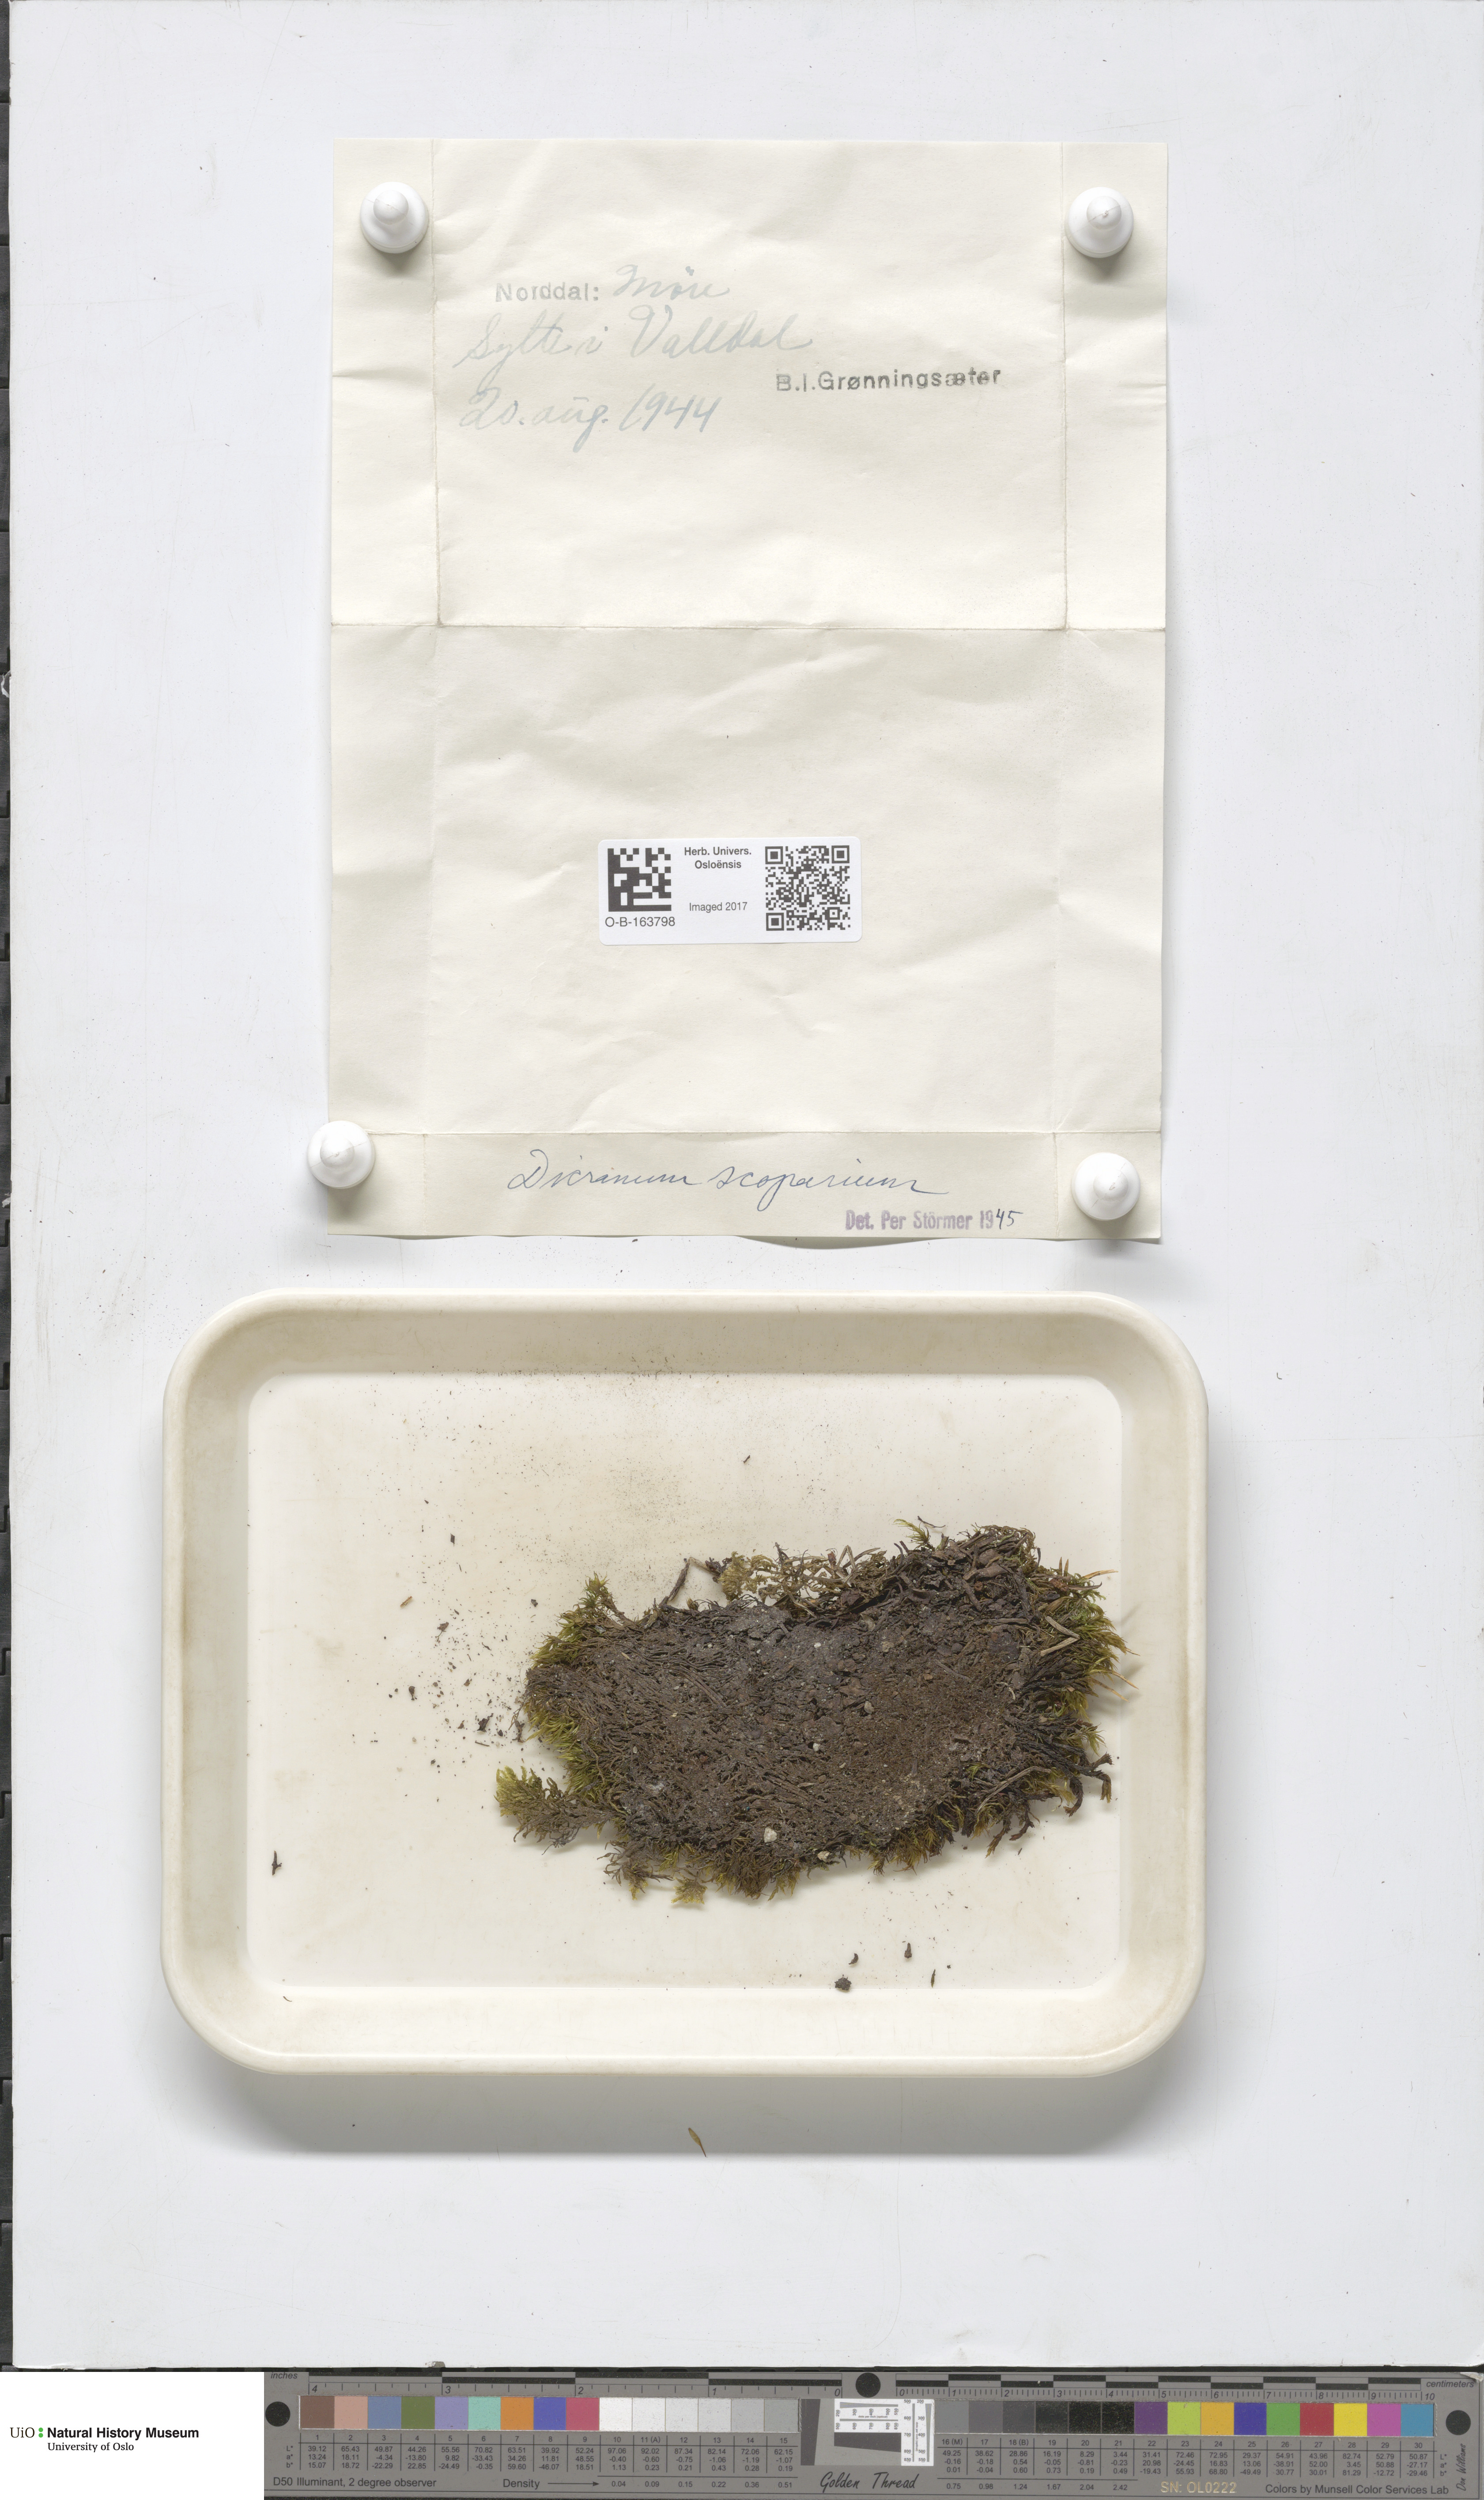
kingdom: Plantae
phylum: Bryophyta
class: Bryopsida
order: Dicranales
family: Dicranaceae
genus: Dicranum
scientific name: Dicranum scoparium
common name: Broom fork-moss
